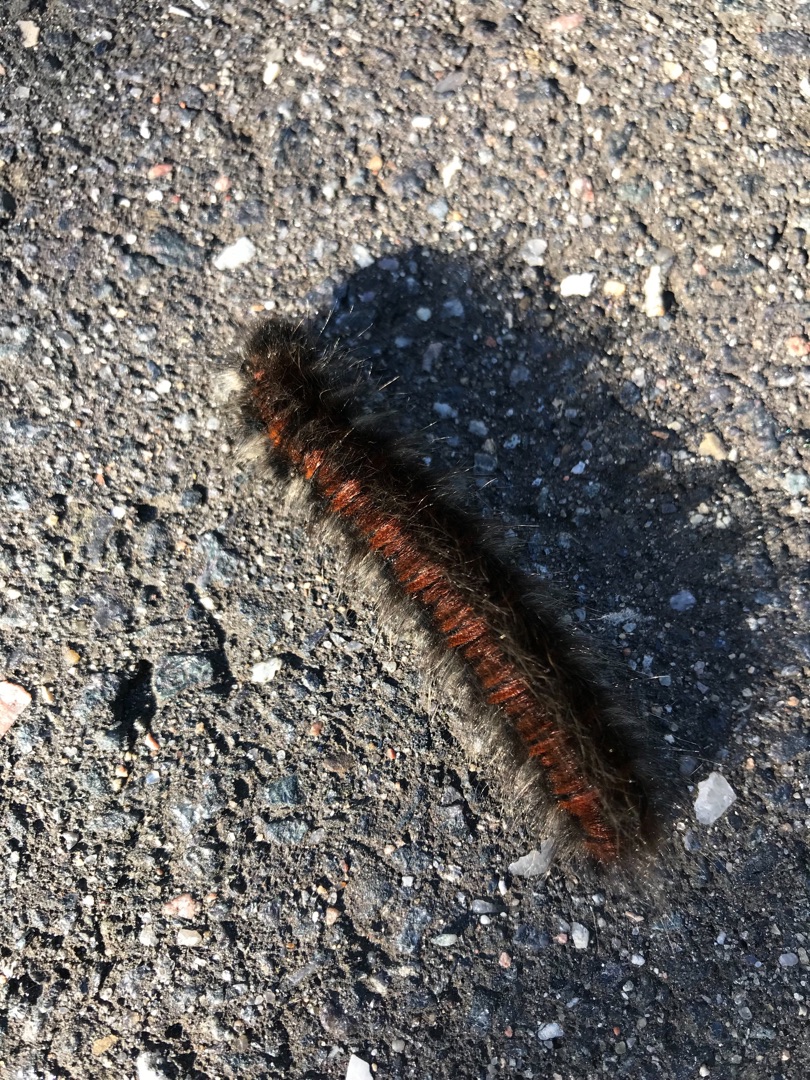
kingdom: Animalia
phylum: Arthropoda
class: Insecta
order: Lepidoptera
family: Lasiocampidae
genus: Macrothylacia
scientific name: Macrothylacia rubi
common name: Brombærspinder
